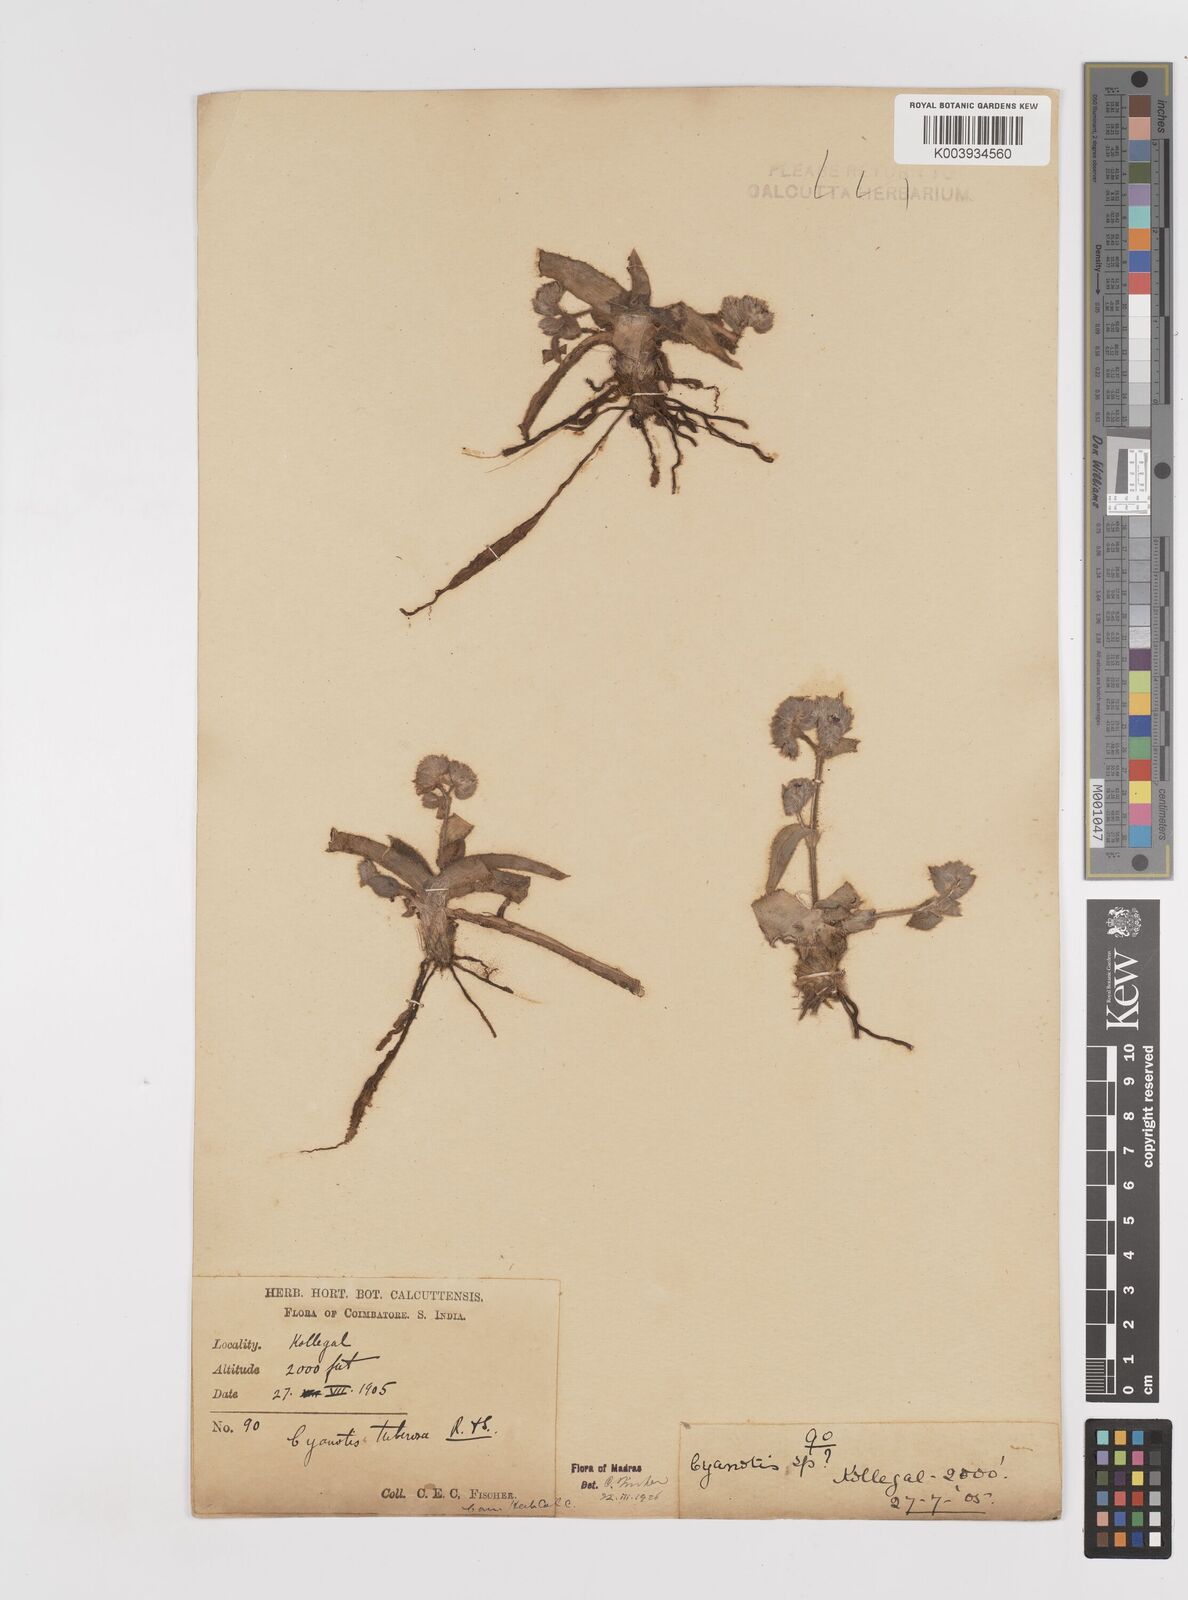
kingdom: Plantae
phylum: Tracheophyta
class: Liliopsida
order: Commelinales
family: Commelinaceae
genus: Cyanotis
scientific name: Cyanotis tuberosa
